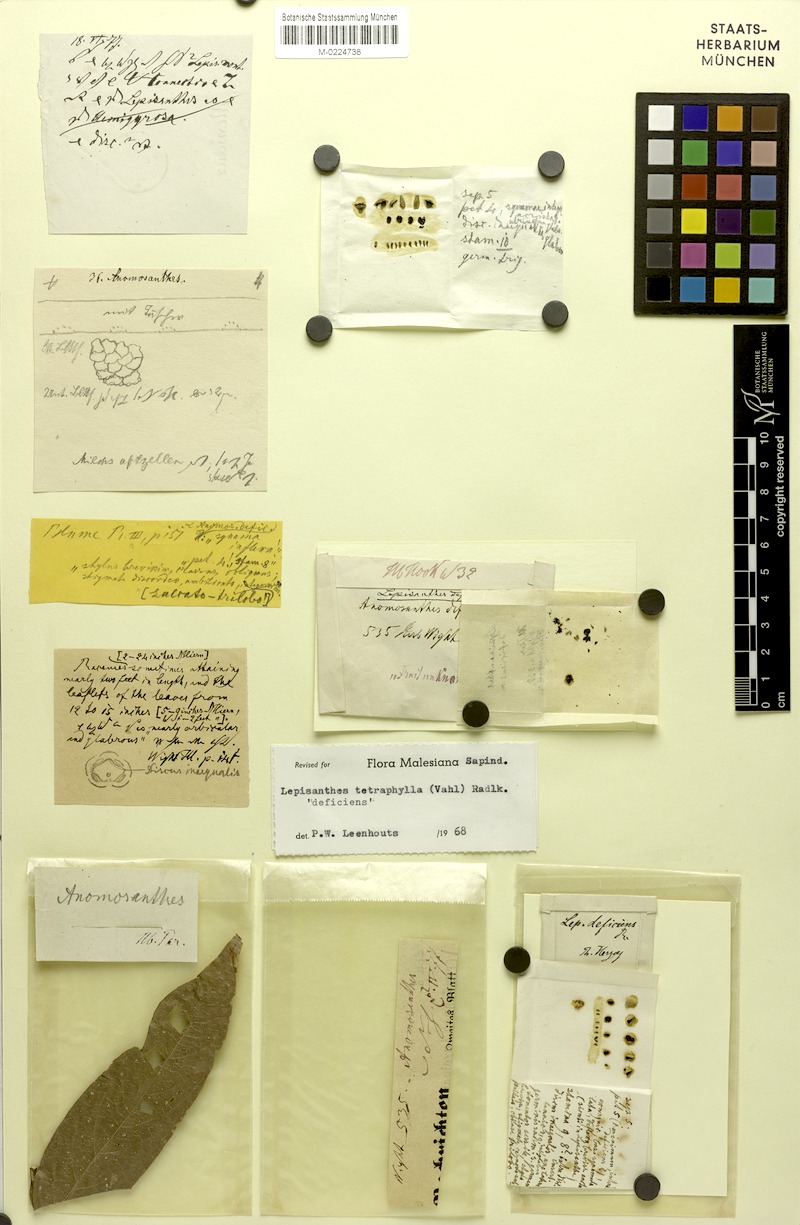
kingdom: Plantae
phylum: Tracheophyta
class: Magnoliopsida
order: Sapindales
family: Sapindaceae
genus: Lepisanthes
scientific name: Lepisanthes tetraphylla
